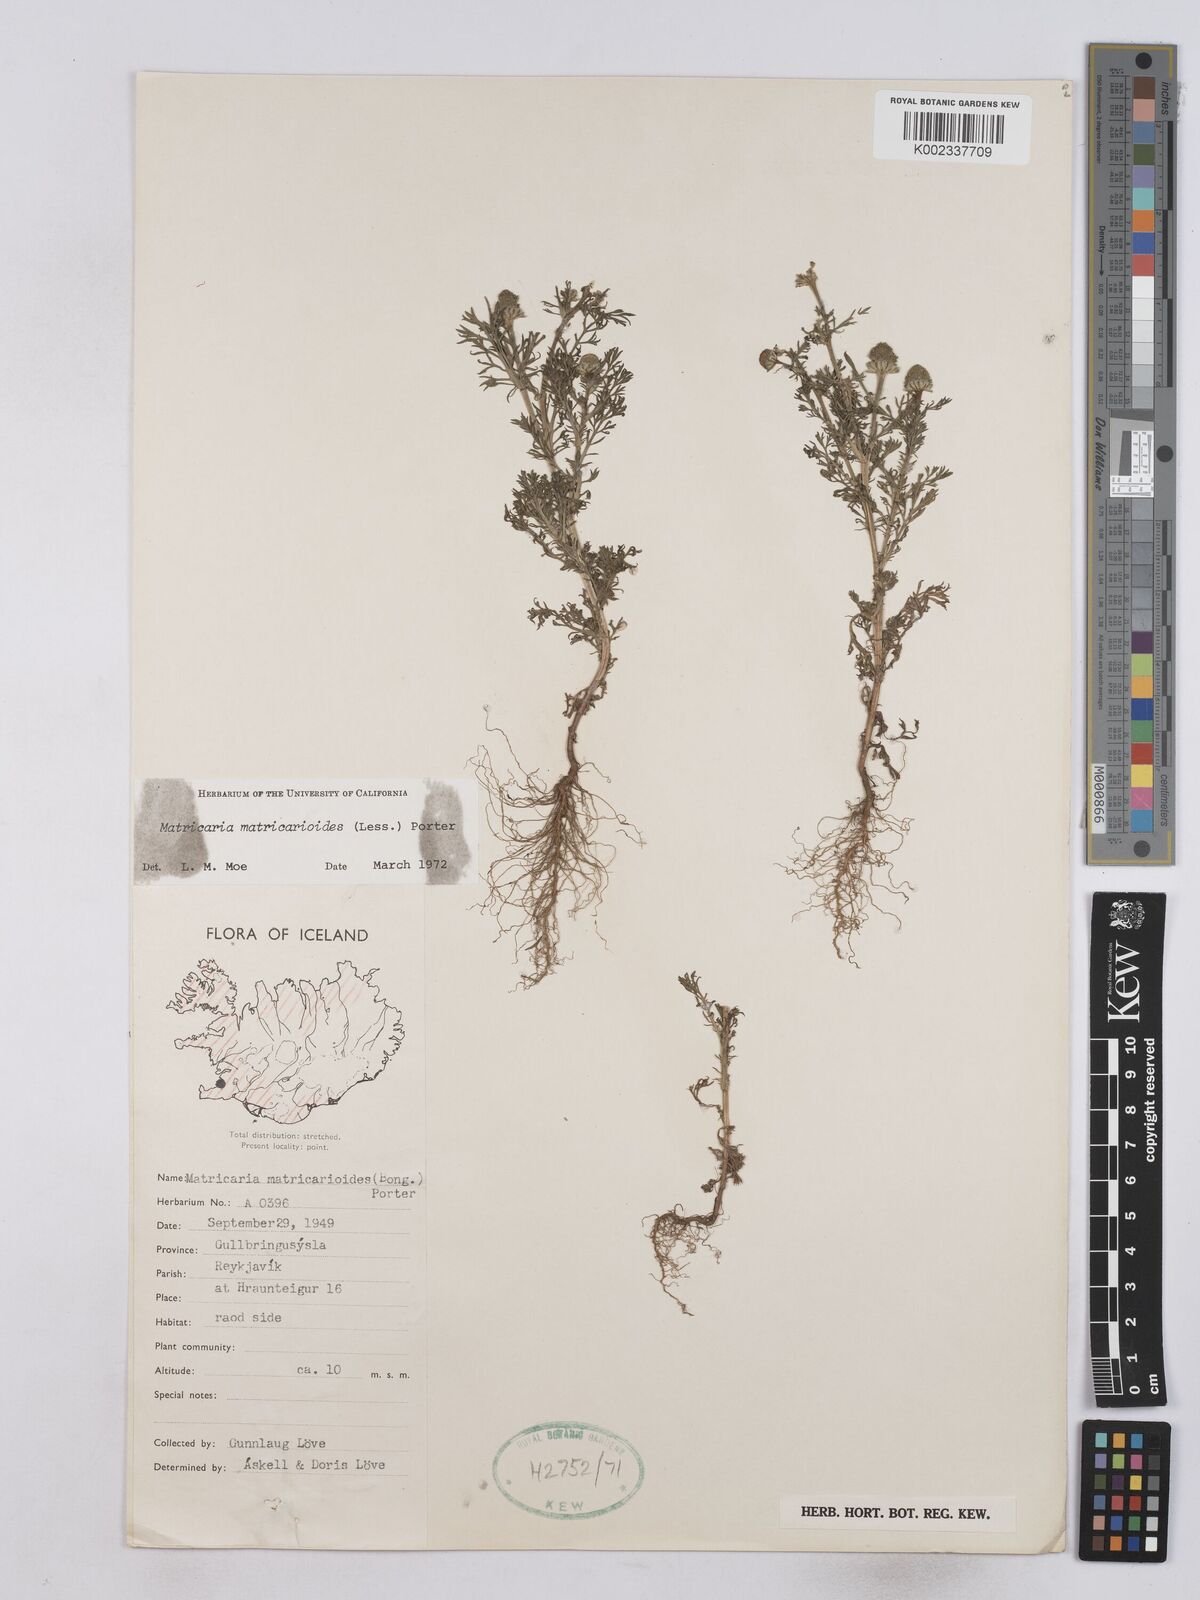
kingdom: Plantae
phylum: Tracheophyta
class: Magnoliopsida
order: Asterales
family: Asteraceae
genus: Matricaria
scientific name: Matricaria discoidea
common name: Disc mayweed
